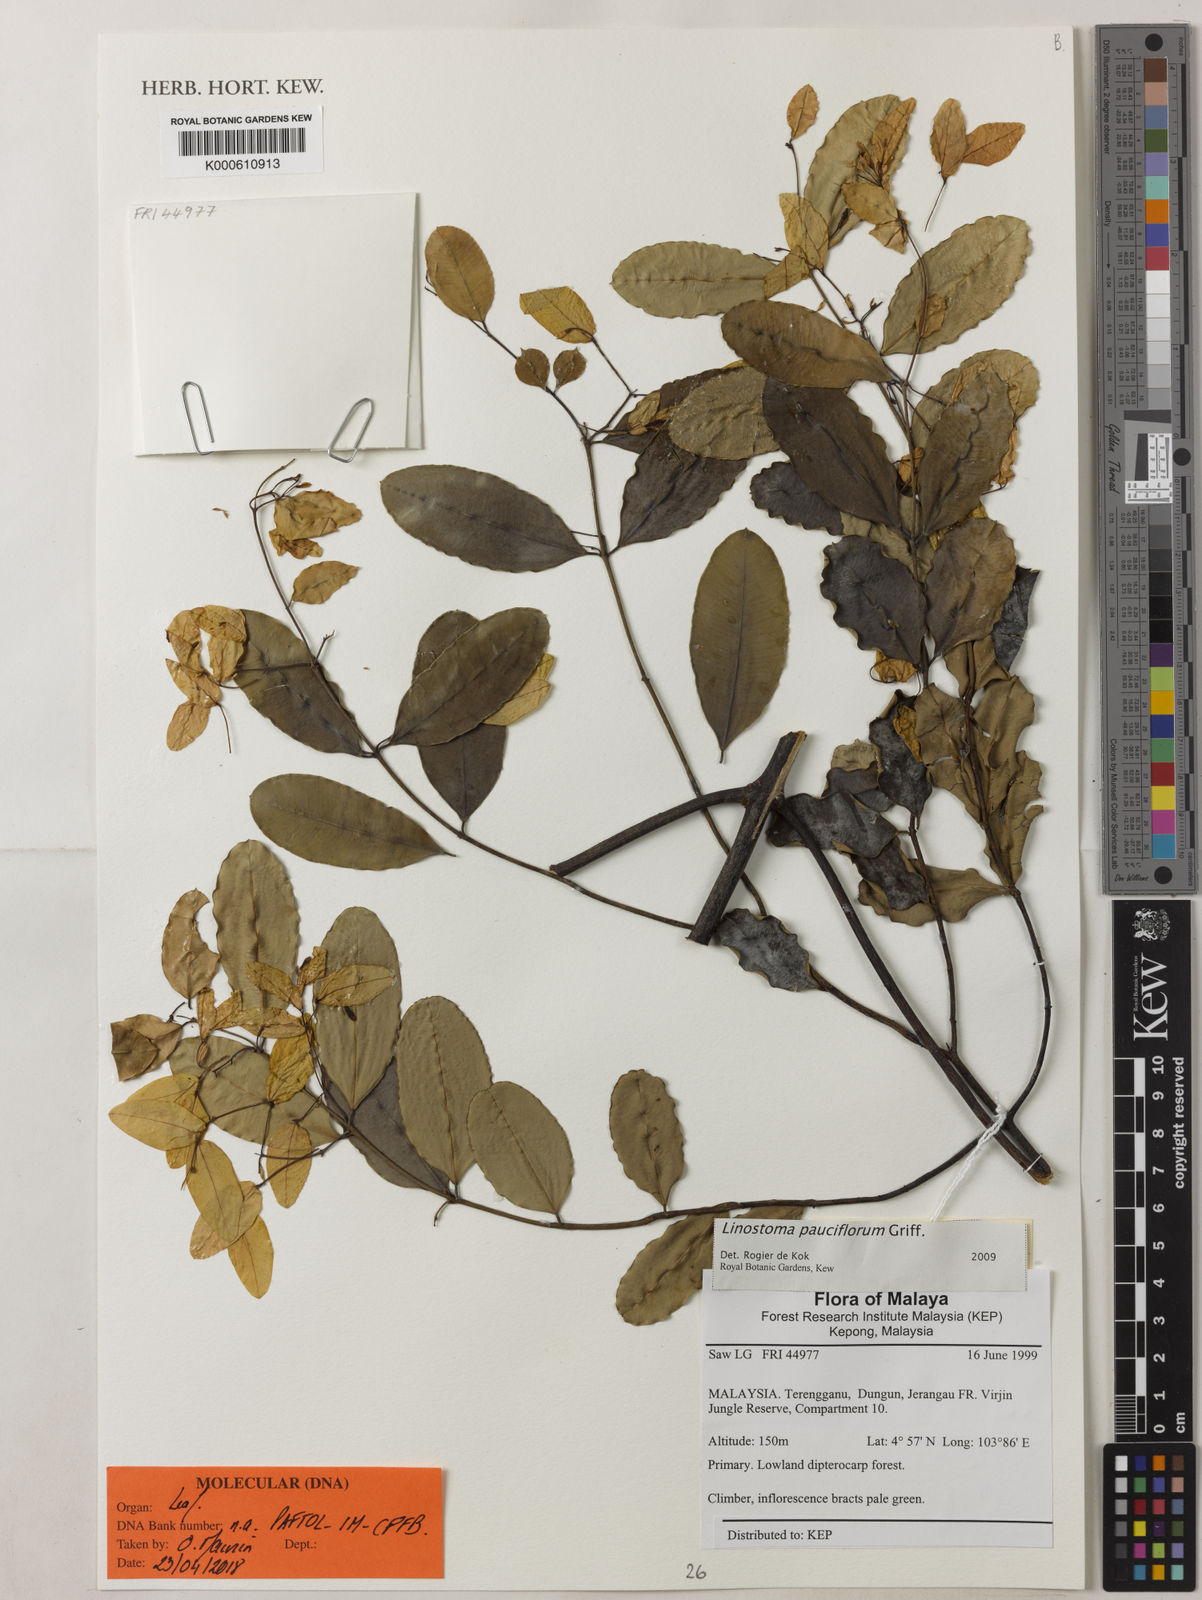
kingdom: Plantae
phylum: Tracheophyta
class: Magnoliopsida
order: Malvales
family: Thymelaeaceae
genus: Linostoma
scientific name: Linostoma pauciflorum
